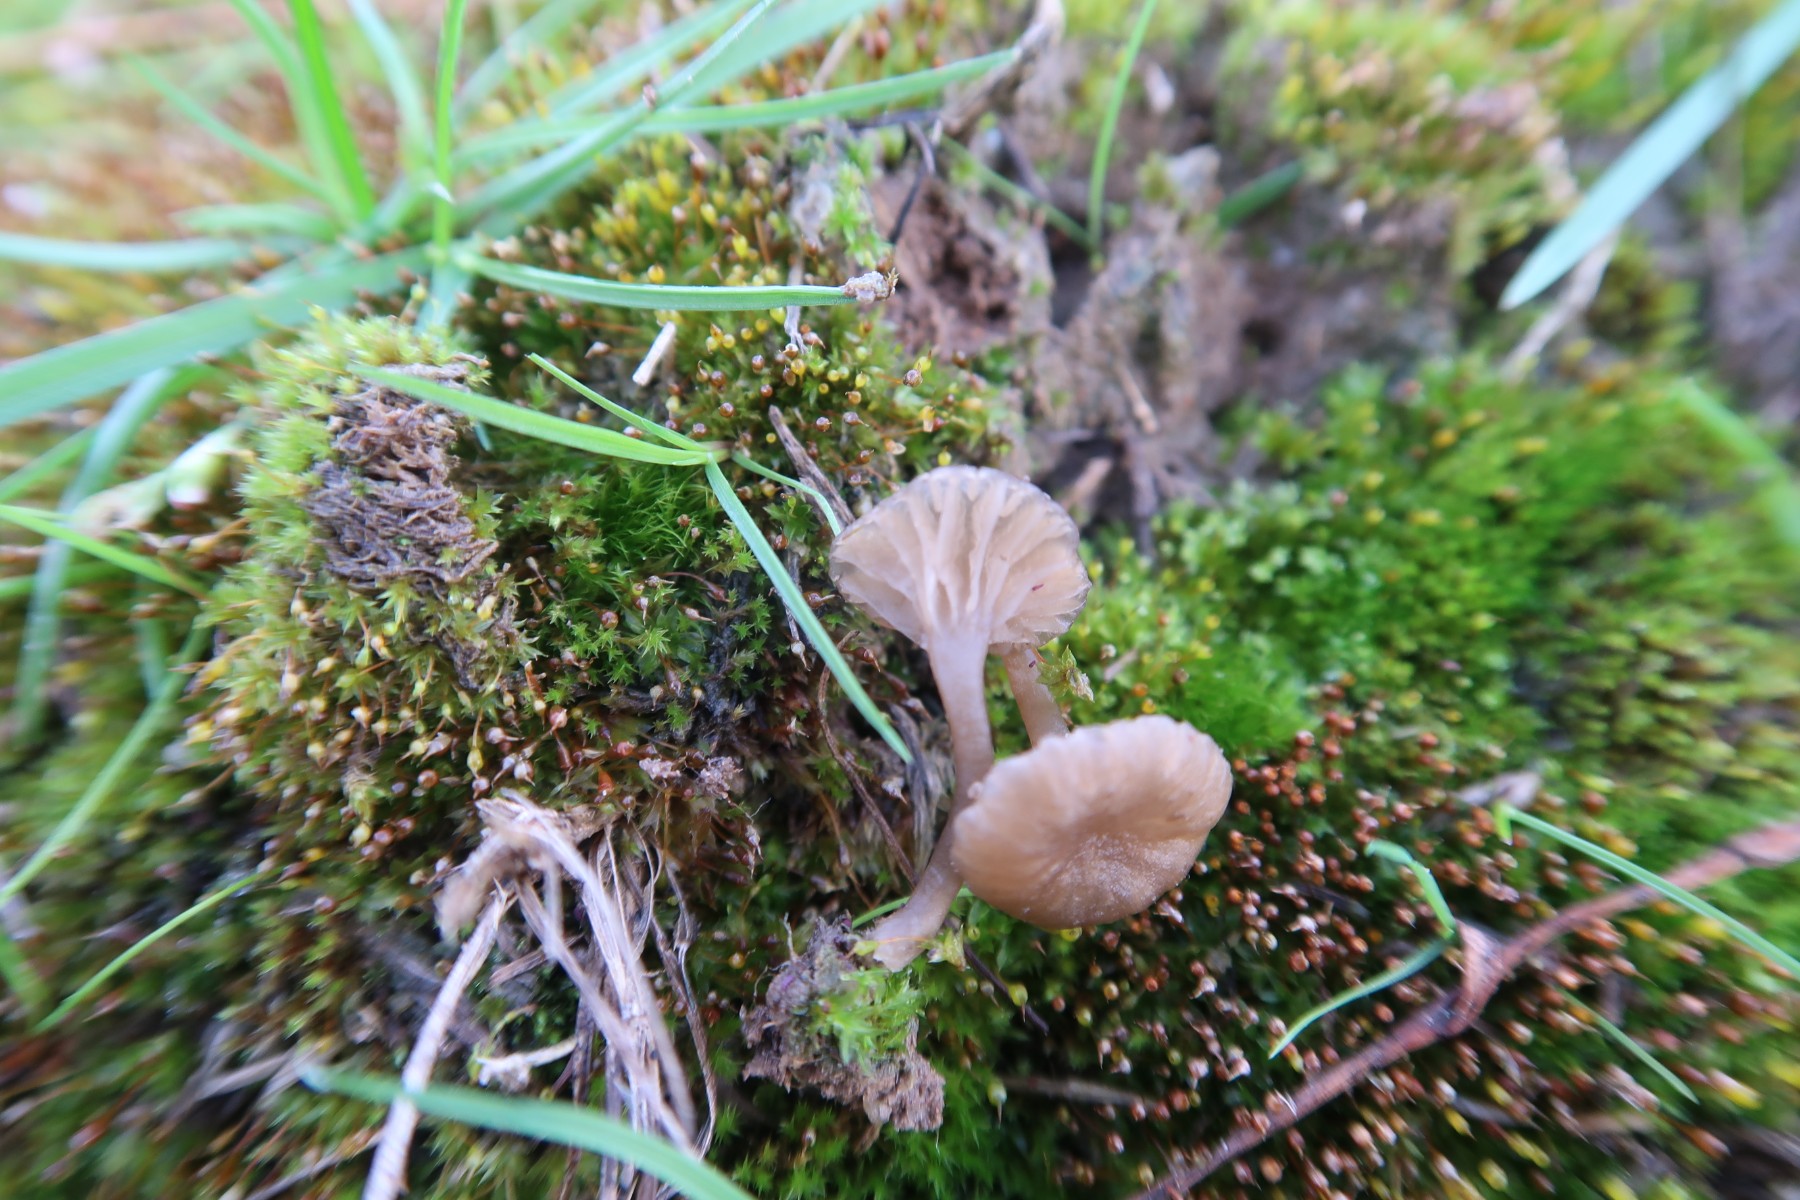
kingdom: Fungi
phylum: Basidiomycota
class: Agaricomycetes
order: Agaricales
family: Hygrophoraceae
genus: Arrhenia
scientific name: Arrhenia obscurata
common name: hede-fontænehat
